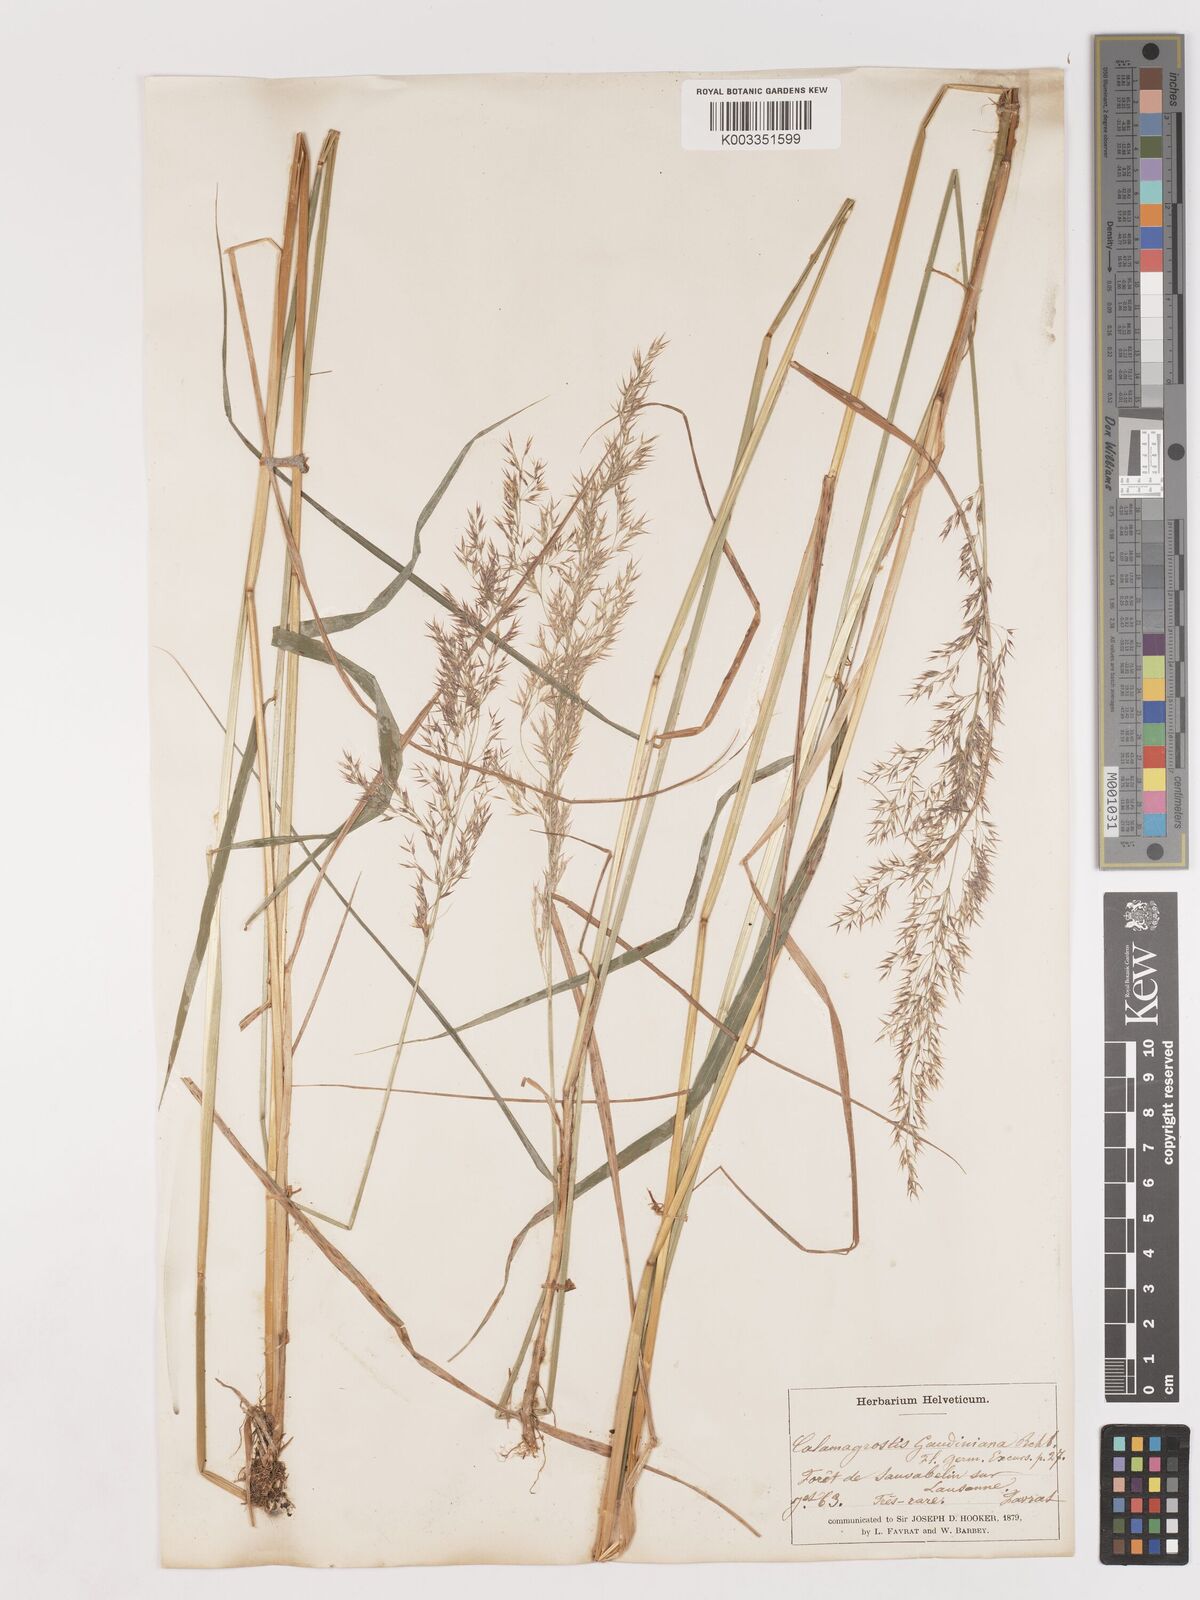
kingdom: Plantae
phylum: Tracheophyta
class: Liliopsida
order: Poales
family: Poaceae
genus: Calamagrostis
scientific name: Calamagrostis canescens
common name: Purple small-reed
